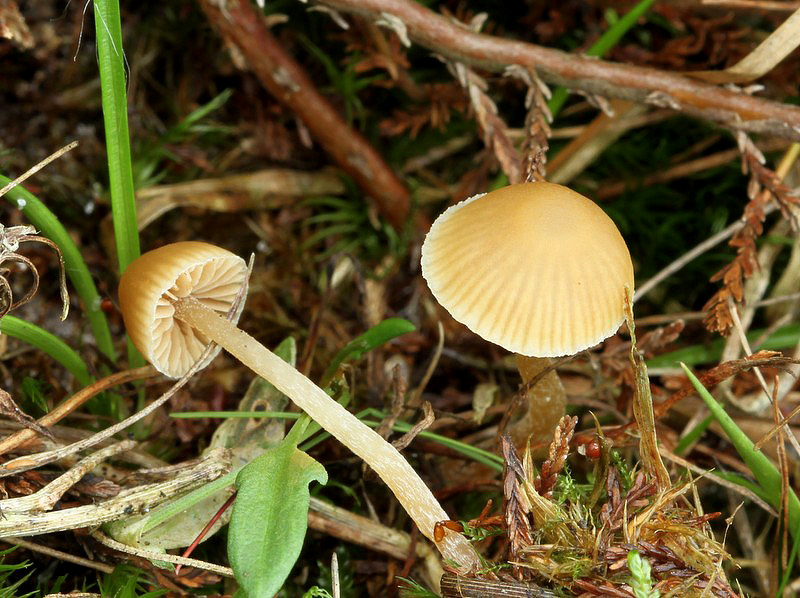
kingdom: Fungi
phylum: Basidiomycota
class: Agaricomycetes
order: Agaricales
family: Hymenogastraceae
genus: Galerina
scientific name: Galerina mniophila
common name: olivengul hjelmhat
